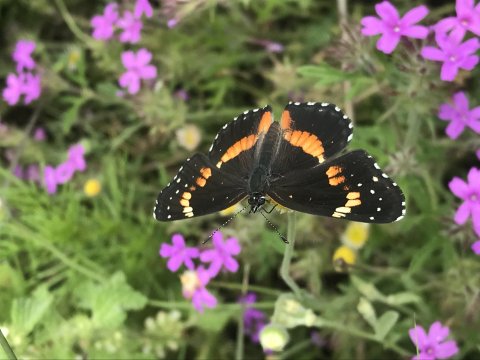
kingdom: Animalia
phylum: Arthropoda
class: Insecta
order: Lepidoptera
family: Nymphalidae
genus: Chlosyne
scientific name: Chlosyne lacinia
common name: Bordered Patch
